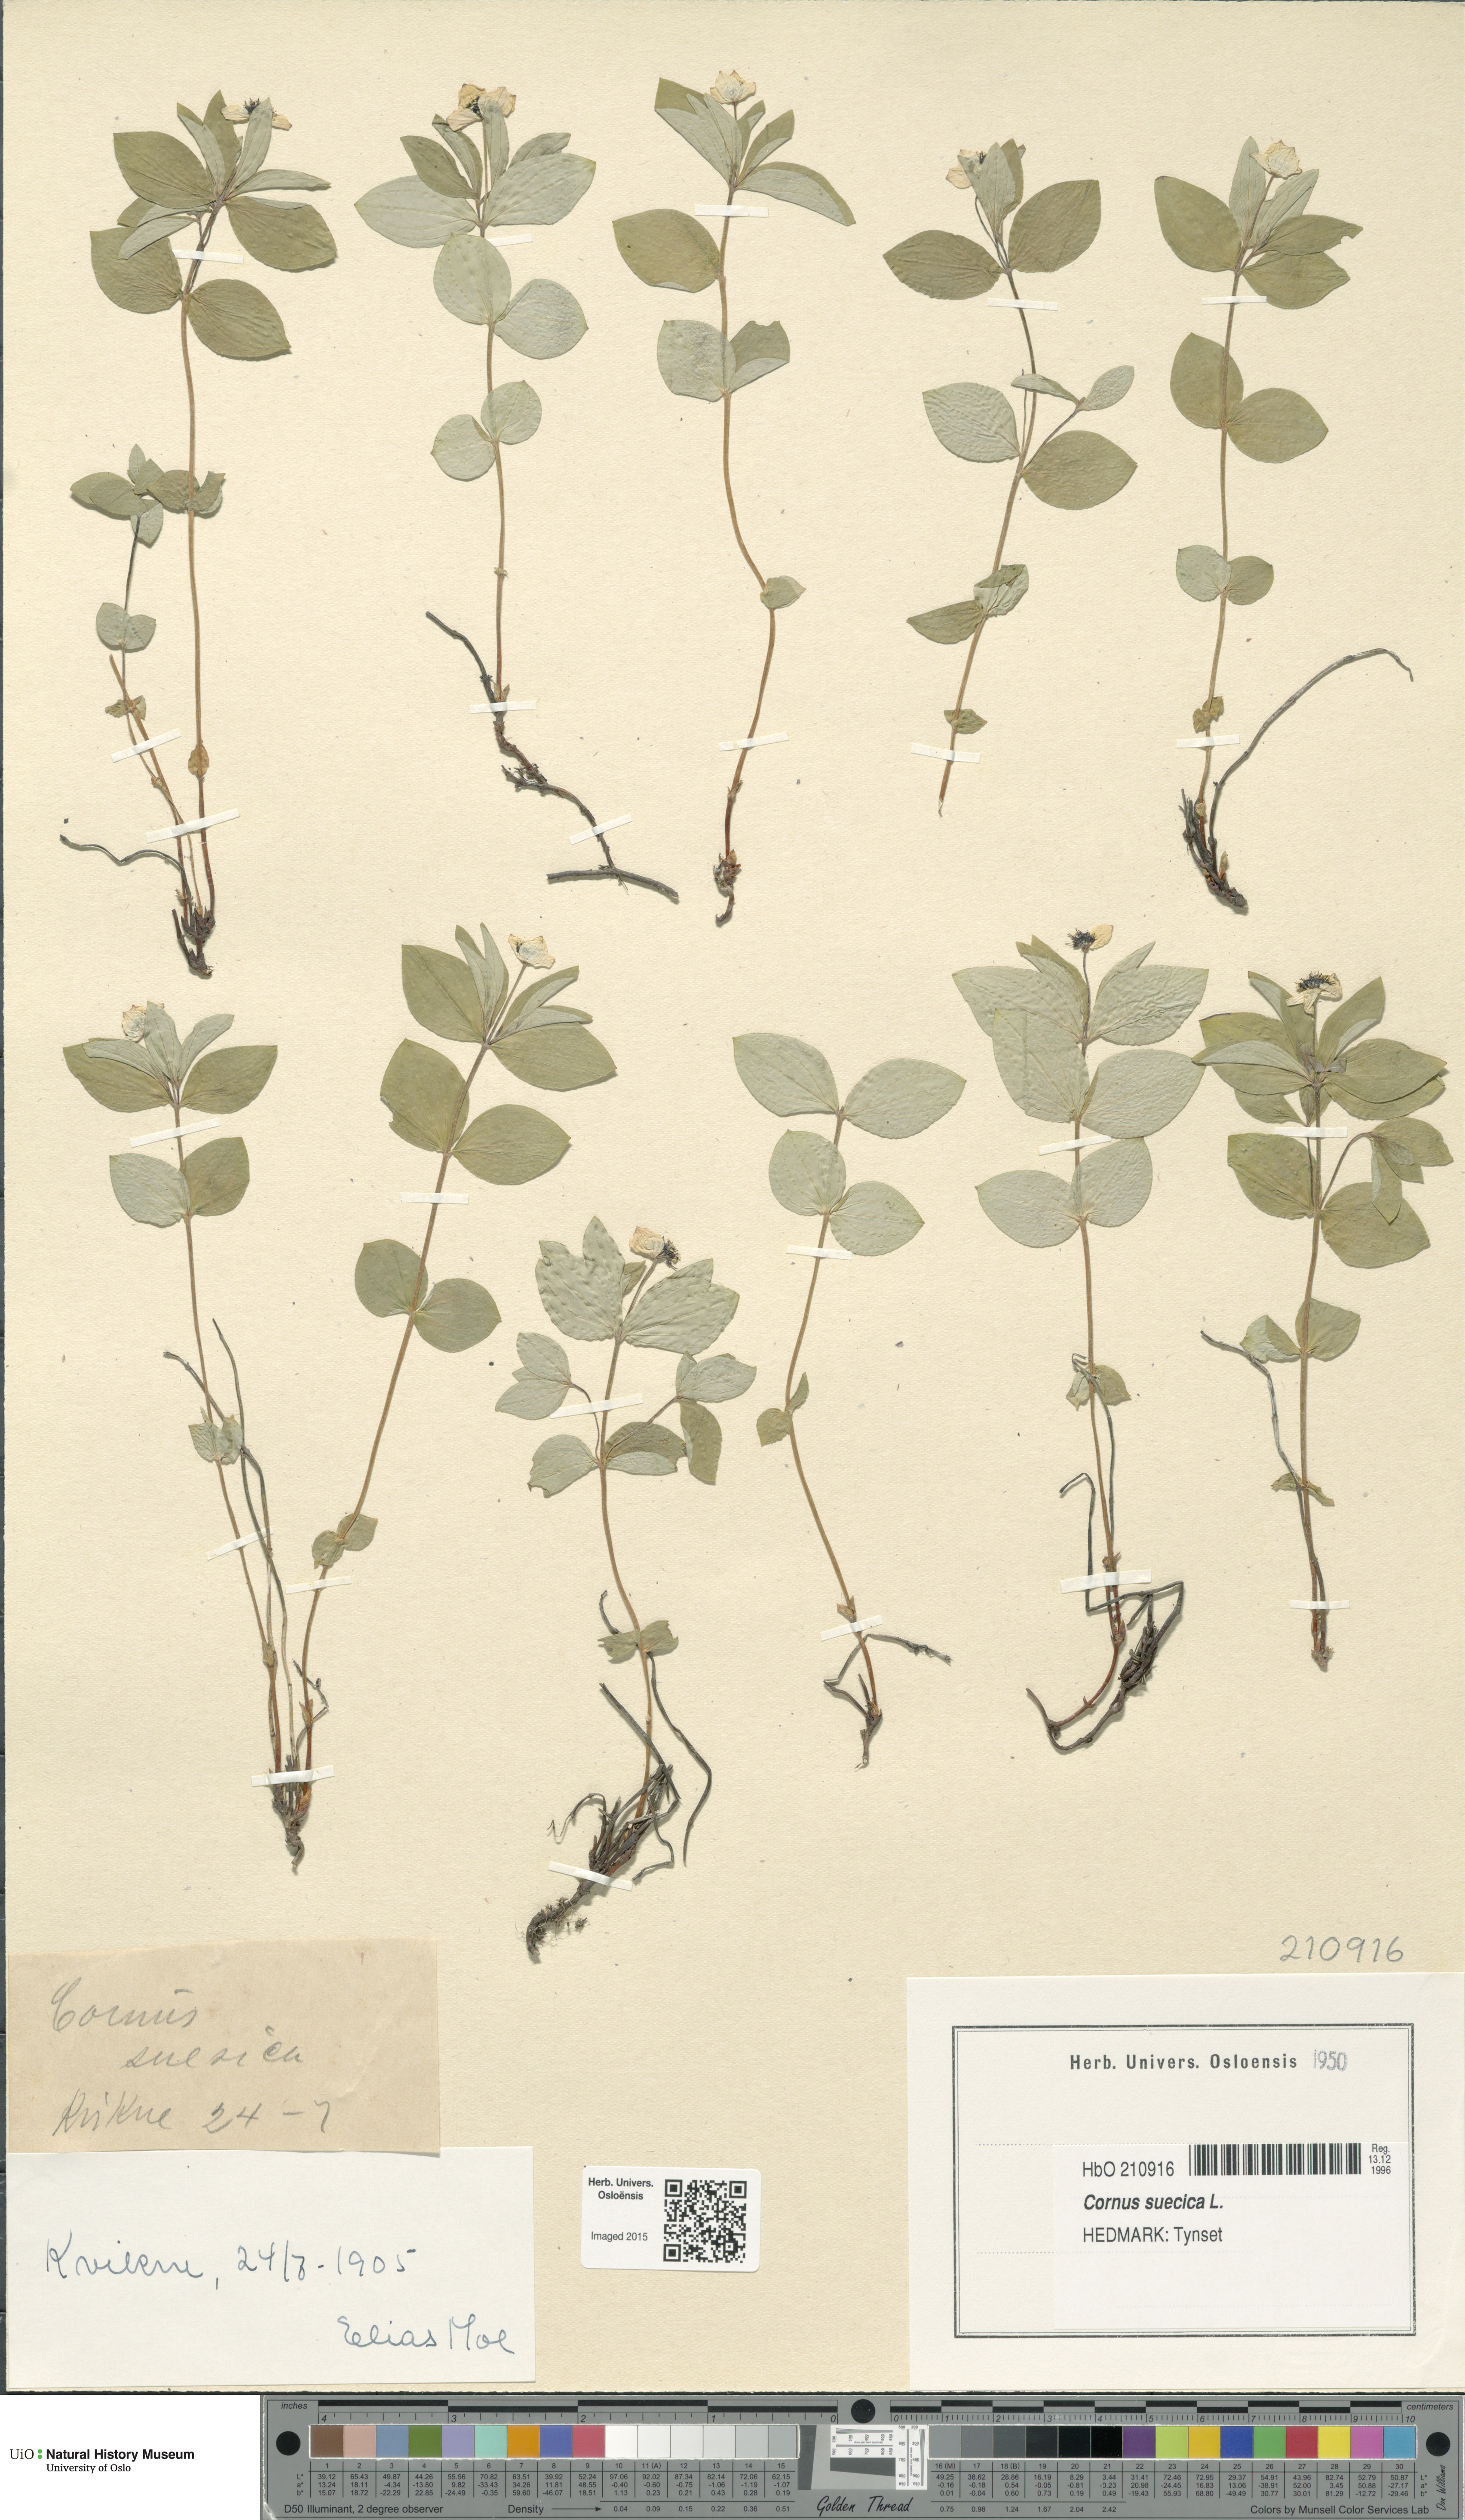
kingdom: Plantae
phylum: Tracheophyta
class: Magnoliopsida
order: Cornales
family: Cornaceae
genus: Cornus
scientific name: Cornus suecica
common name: Dwarf cornel
